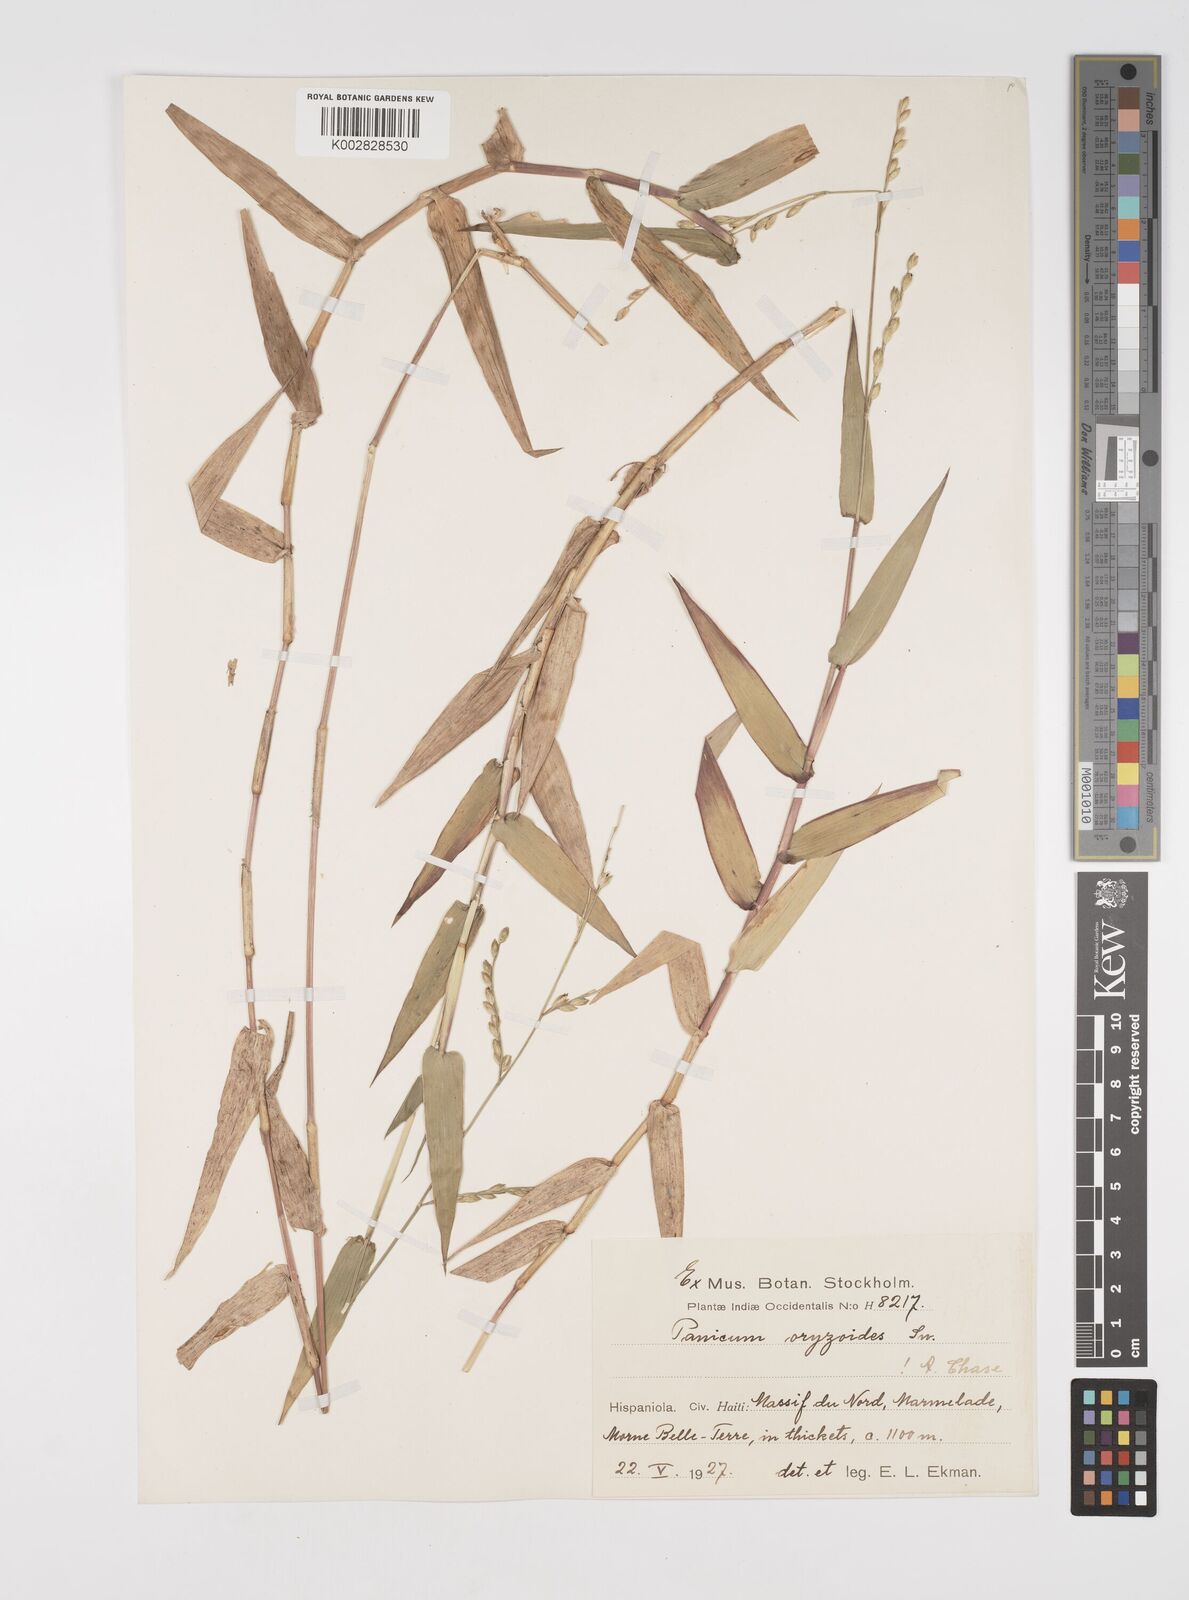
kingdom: Plantae
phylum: Tracheophyta
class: Liliopsida
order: Poales
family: Poaceae
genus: Acroceras
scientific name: Acroceras zizanioides
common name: Oat grass
